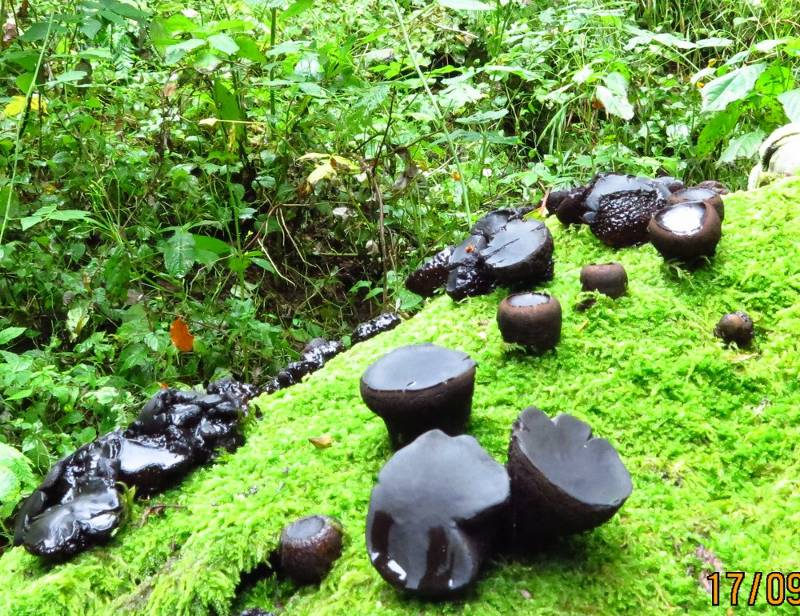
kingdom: Fungi
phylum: Ascomycota
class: Leotiomycetes
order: Phacidiales
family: Phacidiaceae
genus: Bulgaria
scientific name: Bulgaria inquinans
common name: afsmittende topsvamp
